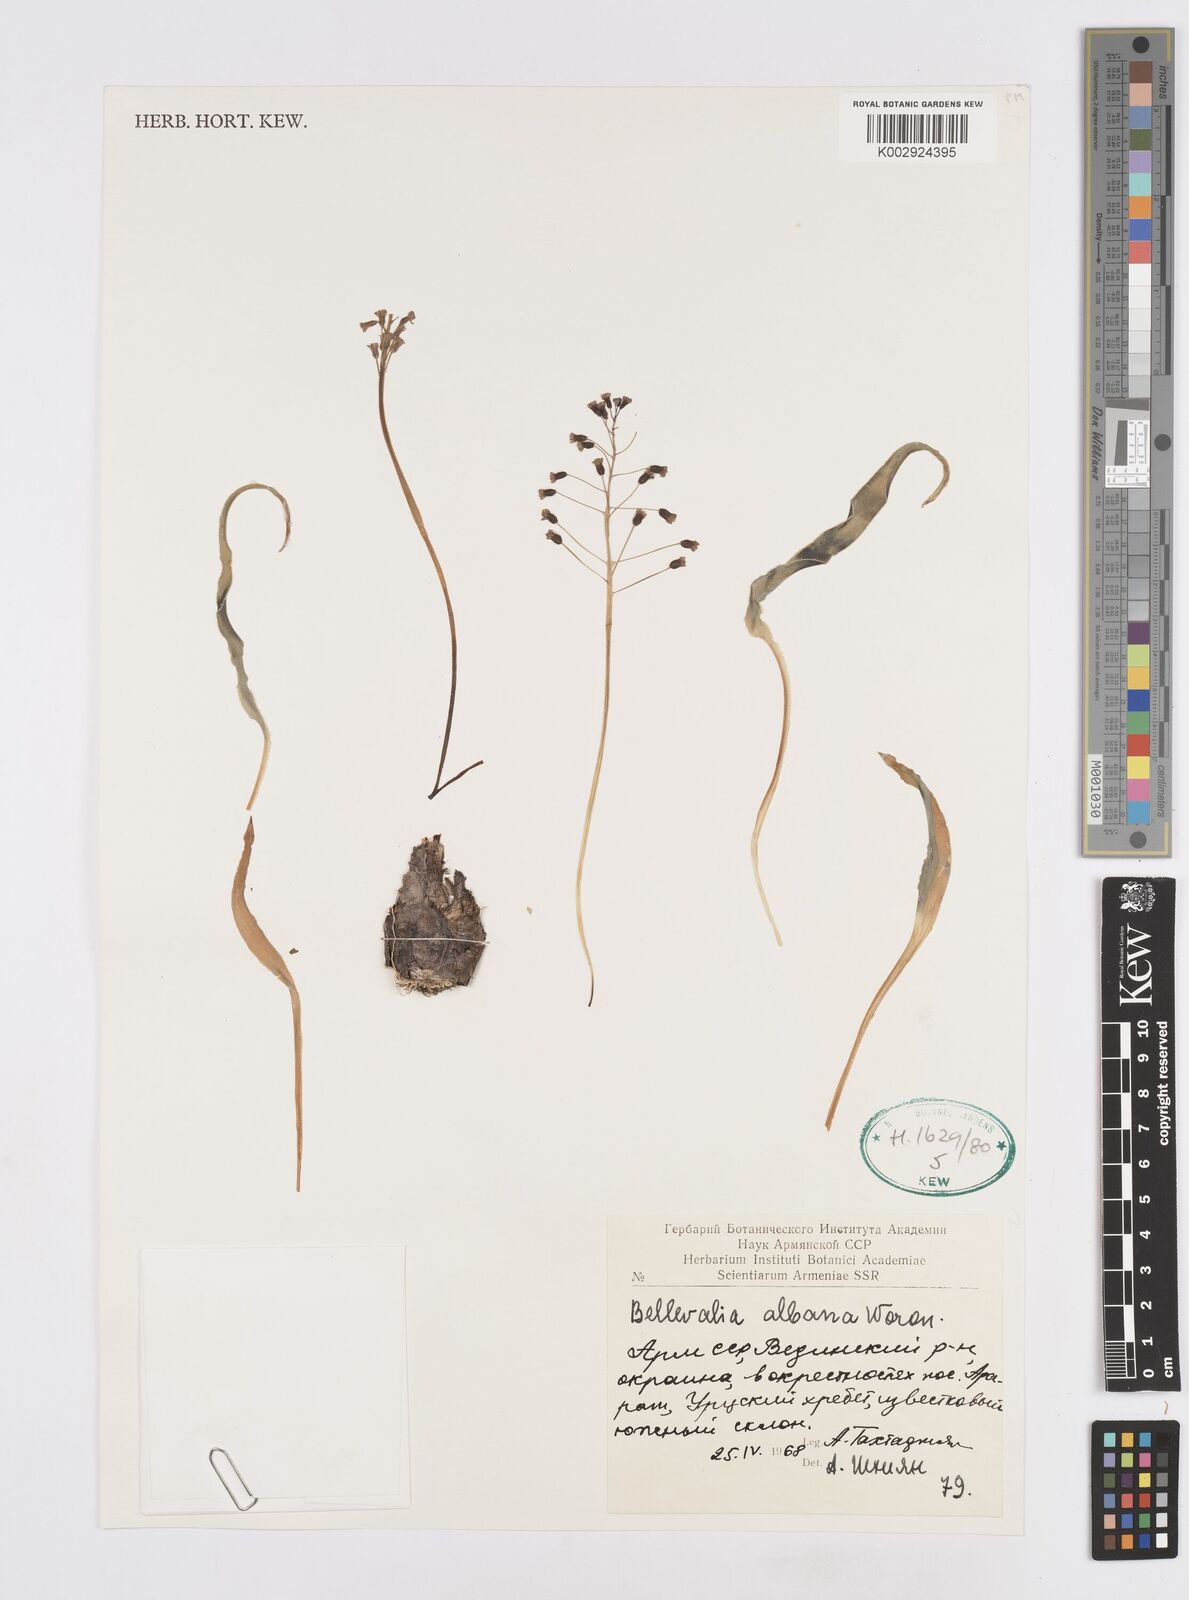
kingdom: Plantae
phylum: Tracheophyta
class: Liliopsida
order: Asparagales
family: Asparagaceae
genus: Bellevalia
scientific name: Bellevalia montana
